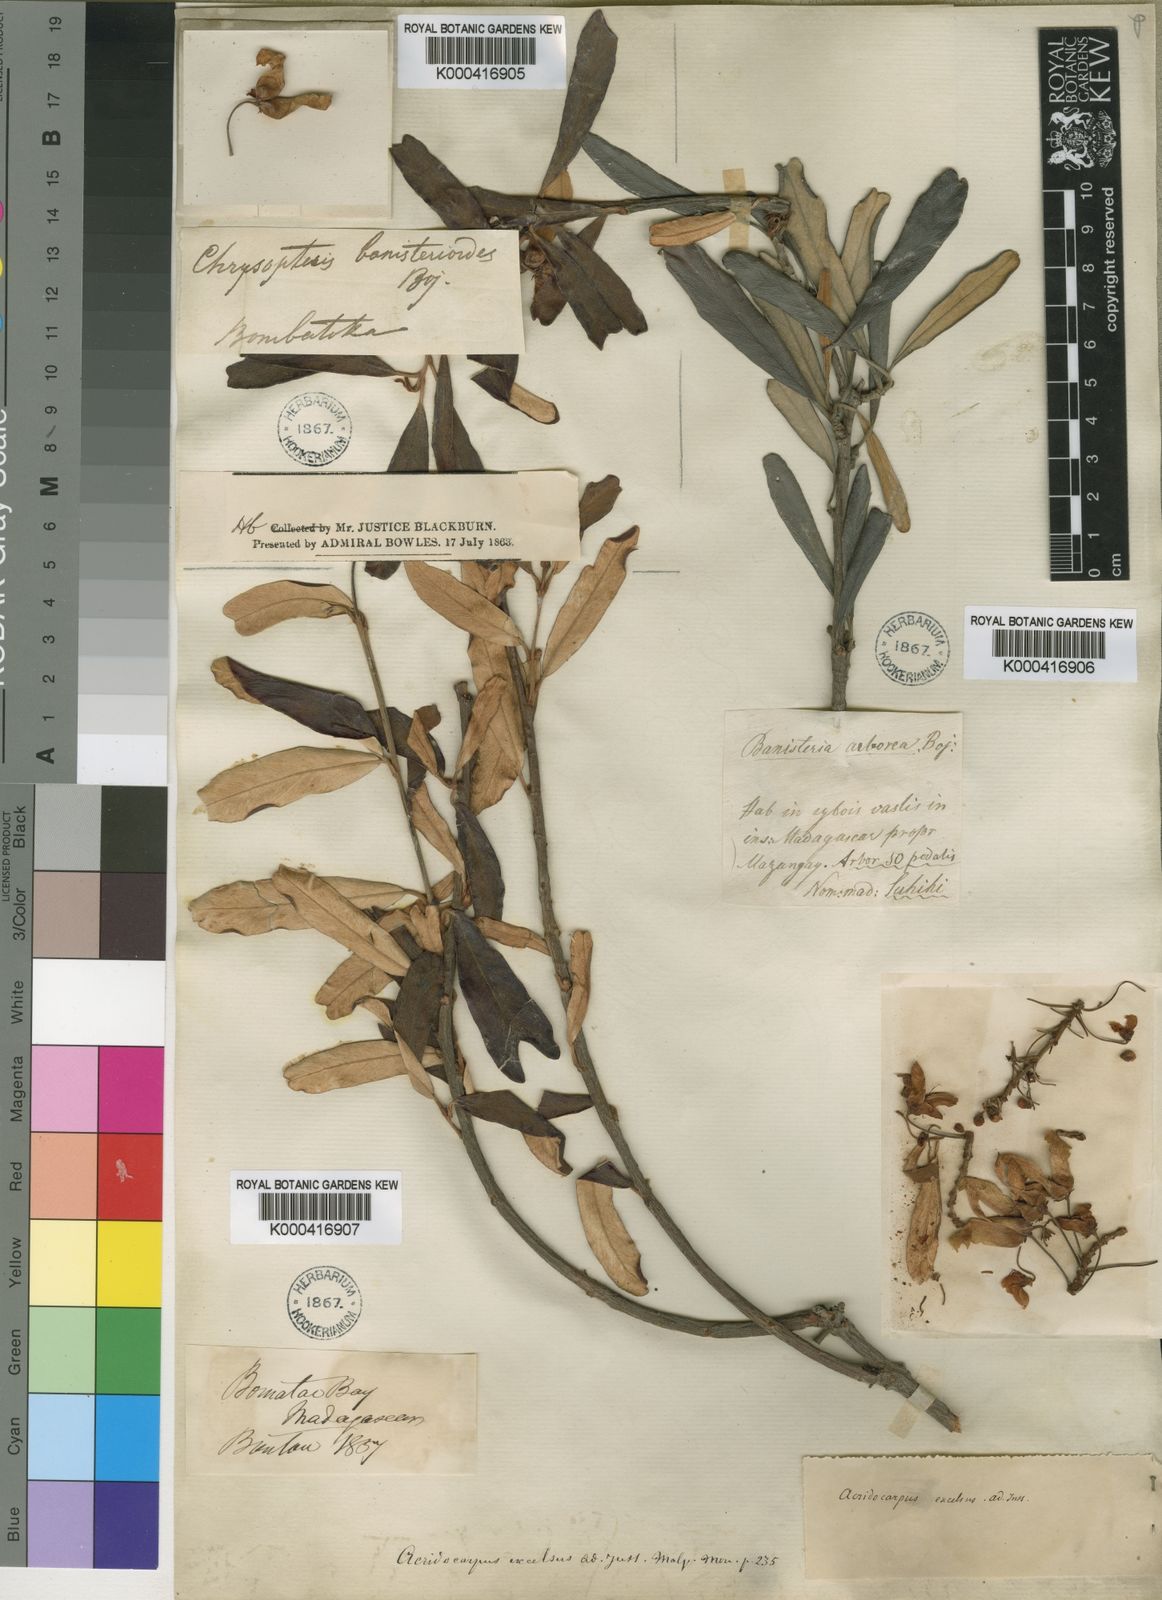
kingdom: Plantae
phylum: Tracheophyta
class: Magnoliopsida
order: Malpighiales
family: Malpighiaceae
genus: Acridocarpus
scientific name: Acridocarpus excelsus
